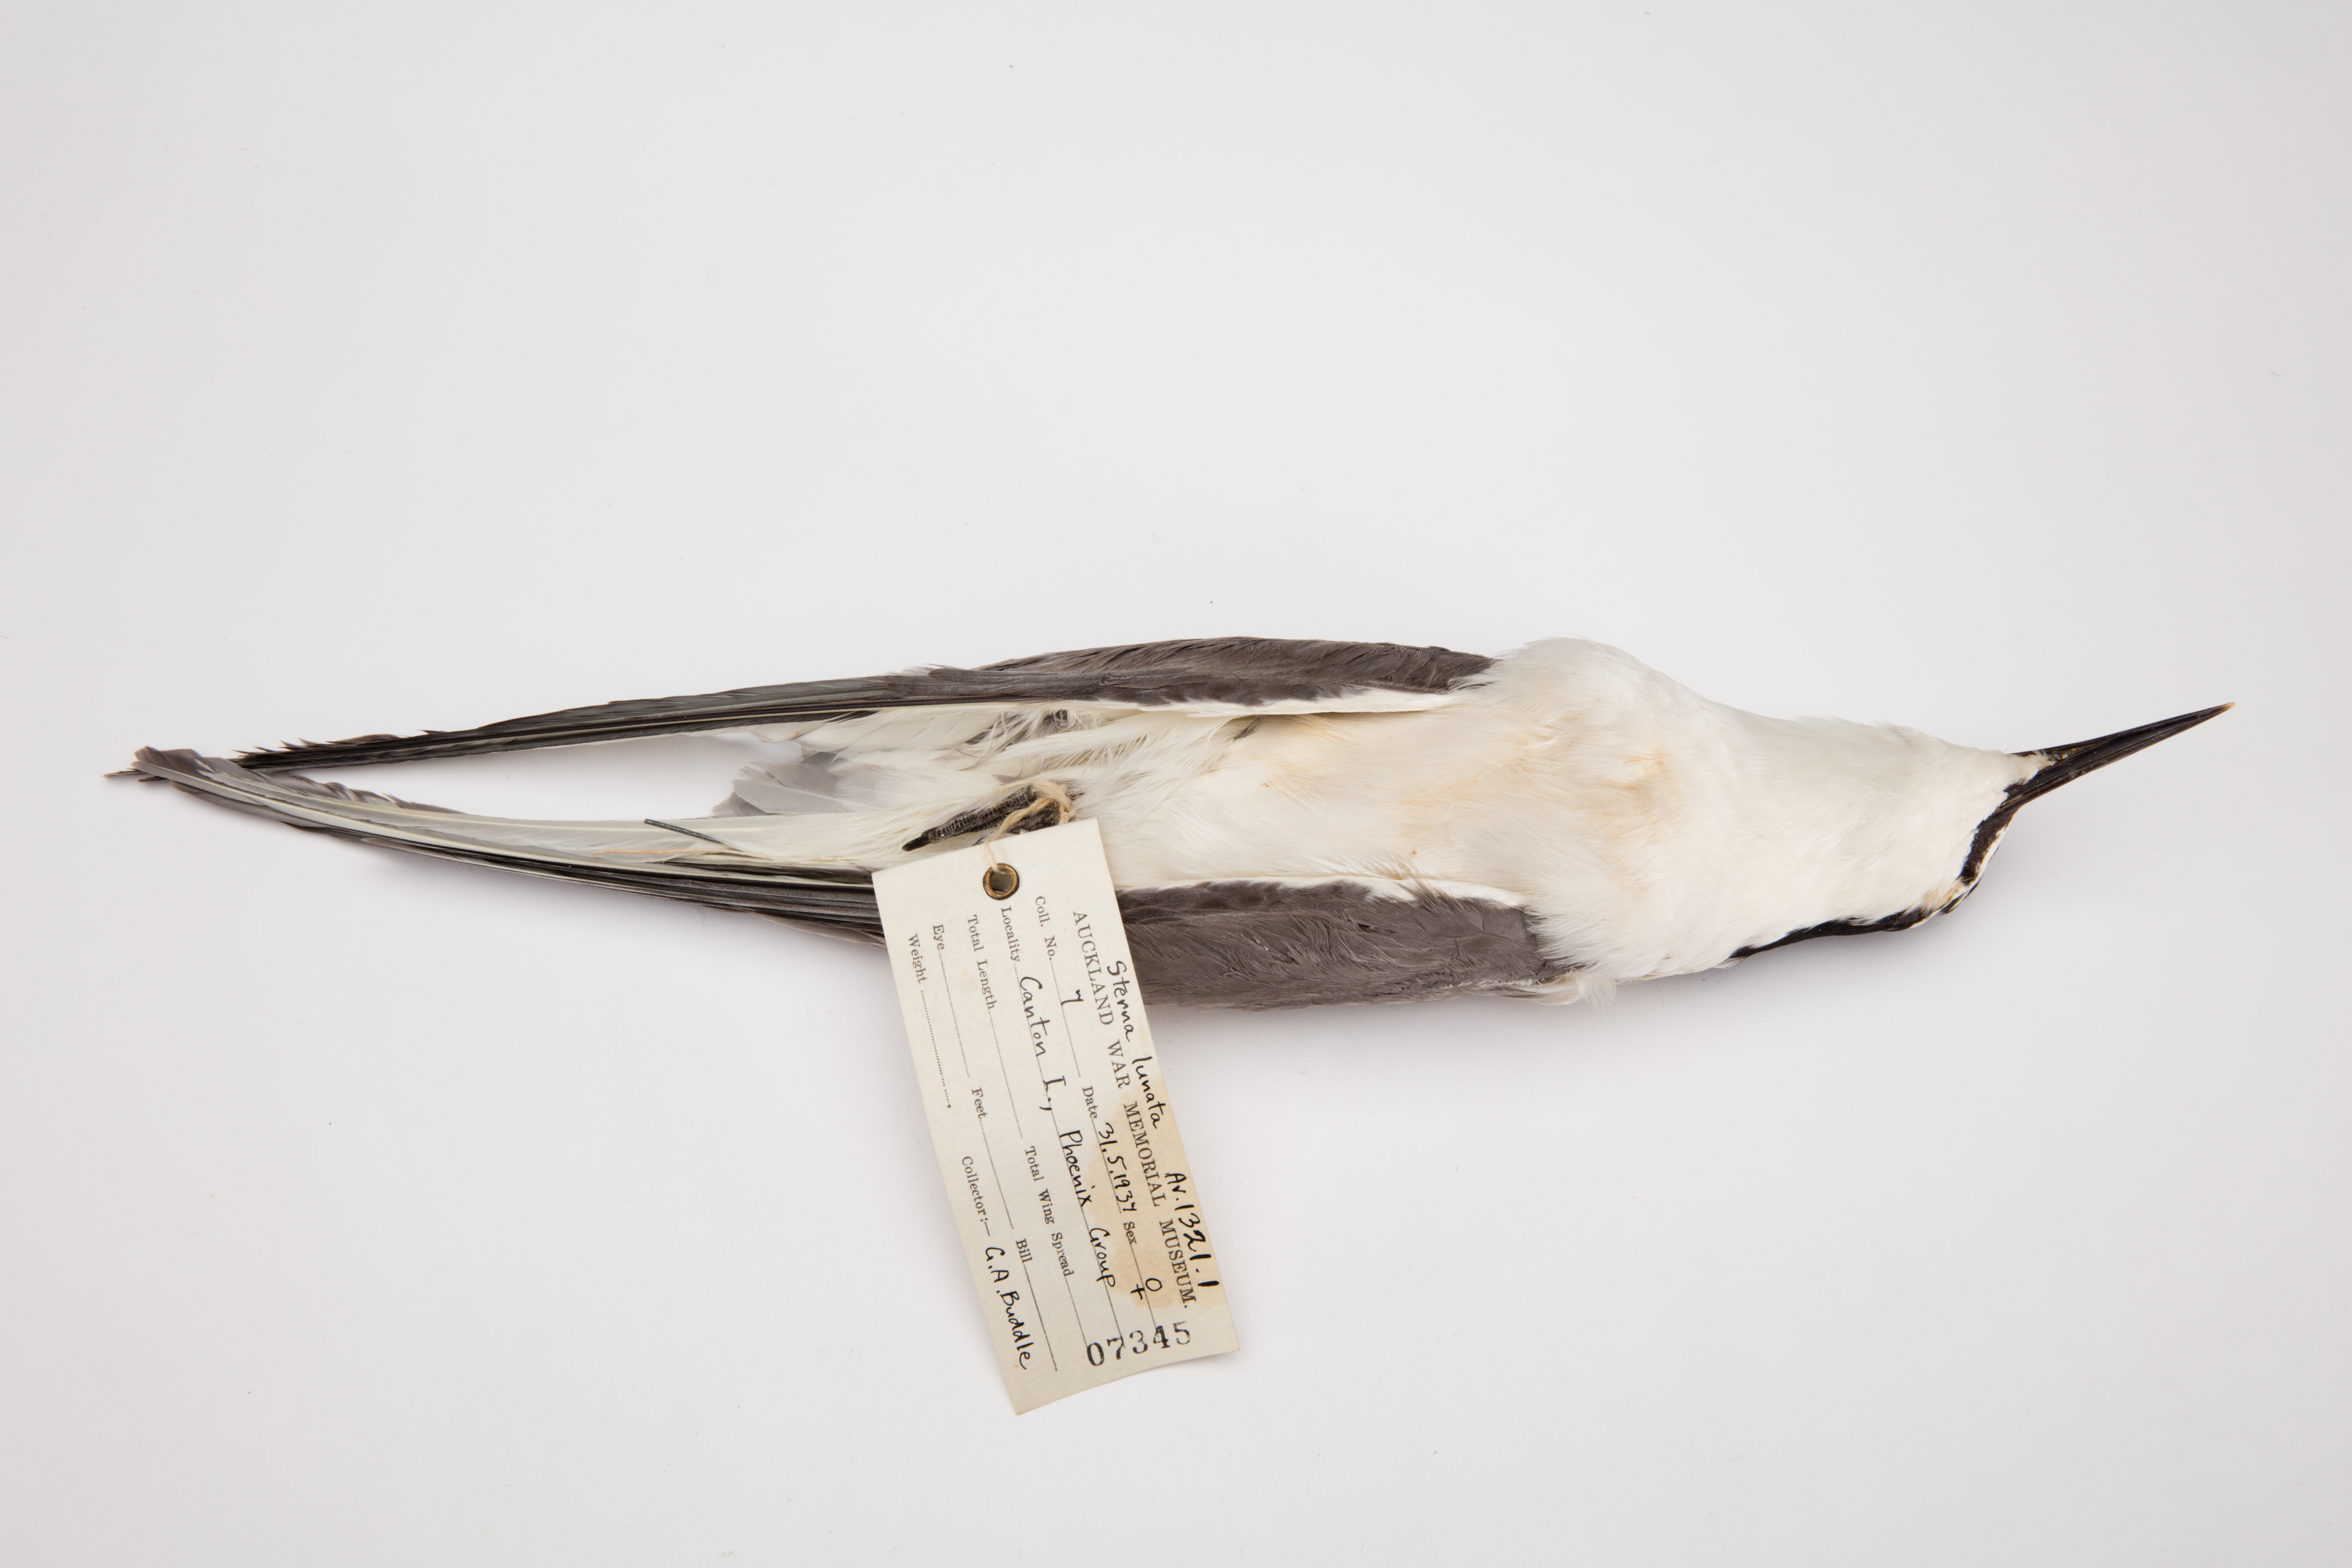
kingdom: Animalia
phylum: Chordata
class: Aves
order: Charadriiformes
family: Laridae
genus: Onychoprion
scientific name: Onychoprion lunatus
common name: Gray-backed tern
